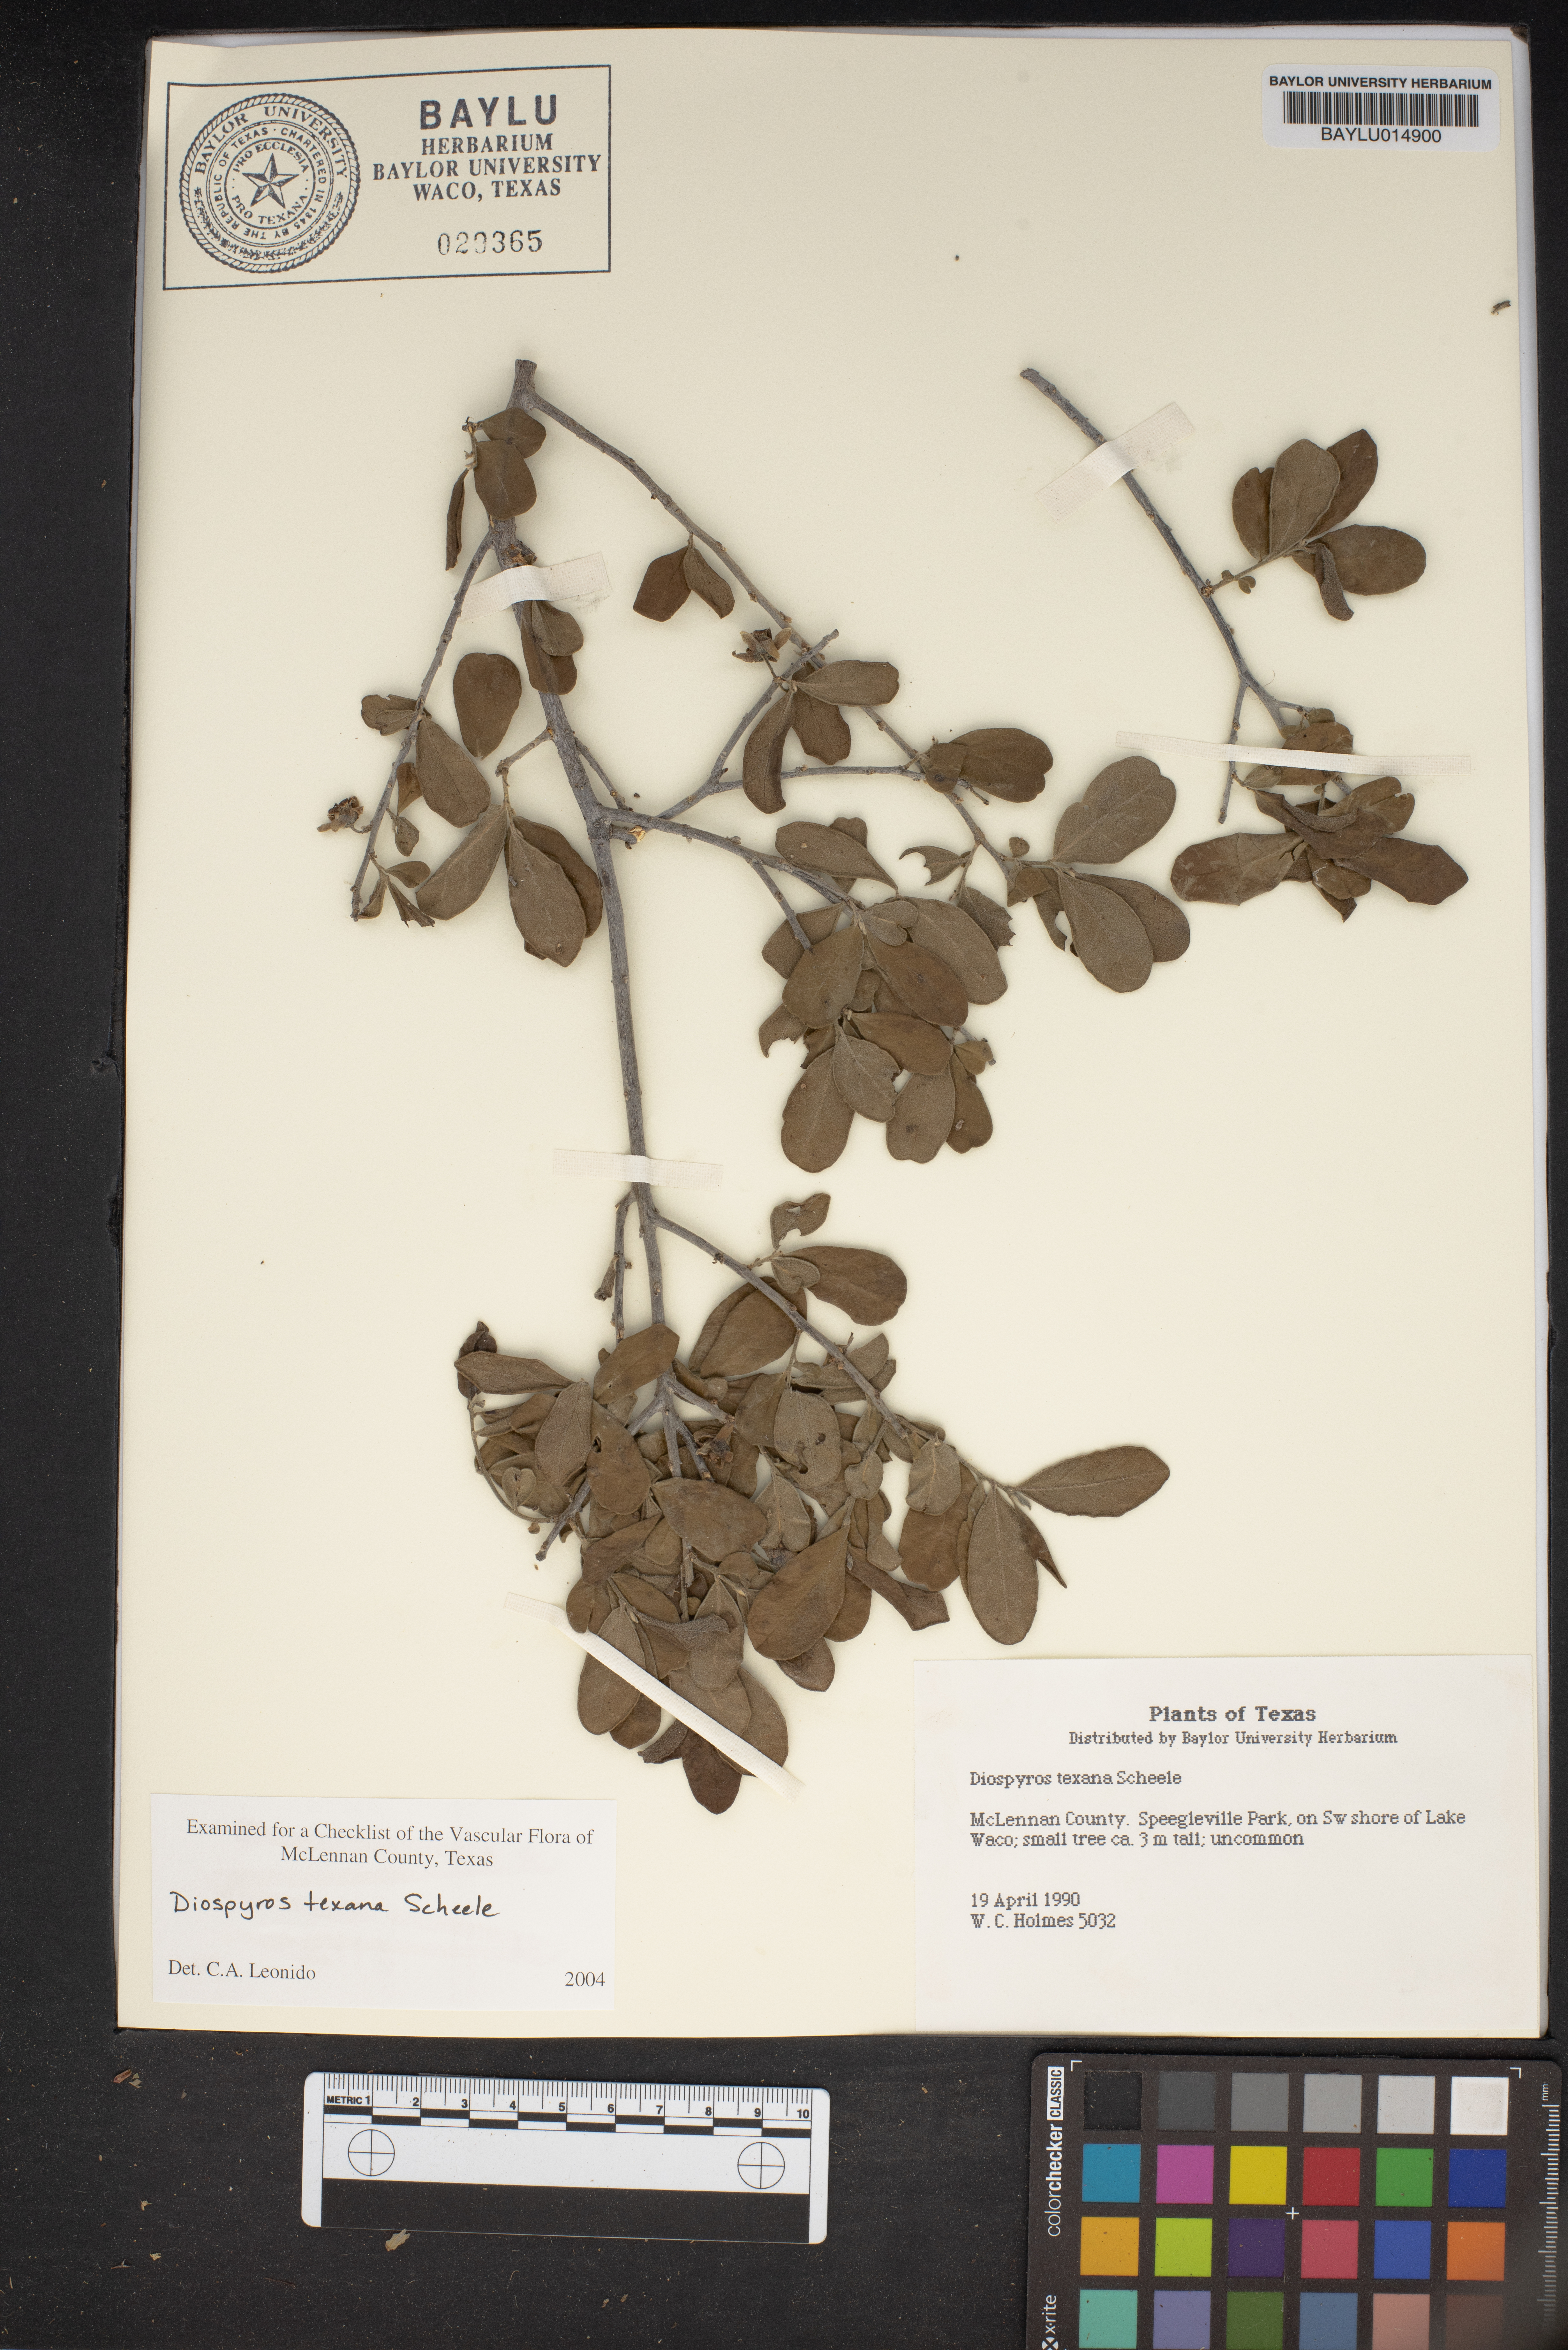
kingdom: Plantae
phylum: Tracheophyta
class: Magnoliopsida
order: Ericales
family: Ebenaceae
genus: Diospyros
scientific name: Diospyros texana
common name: Texas persimmon
